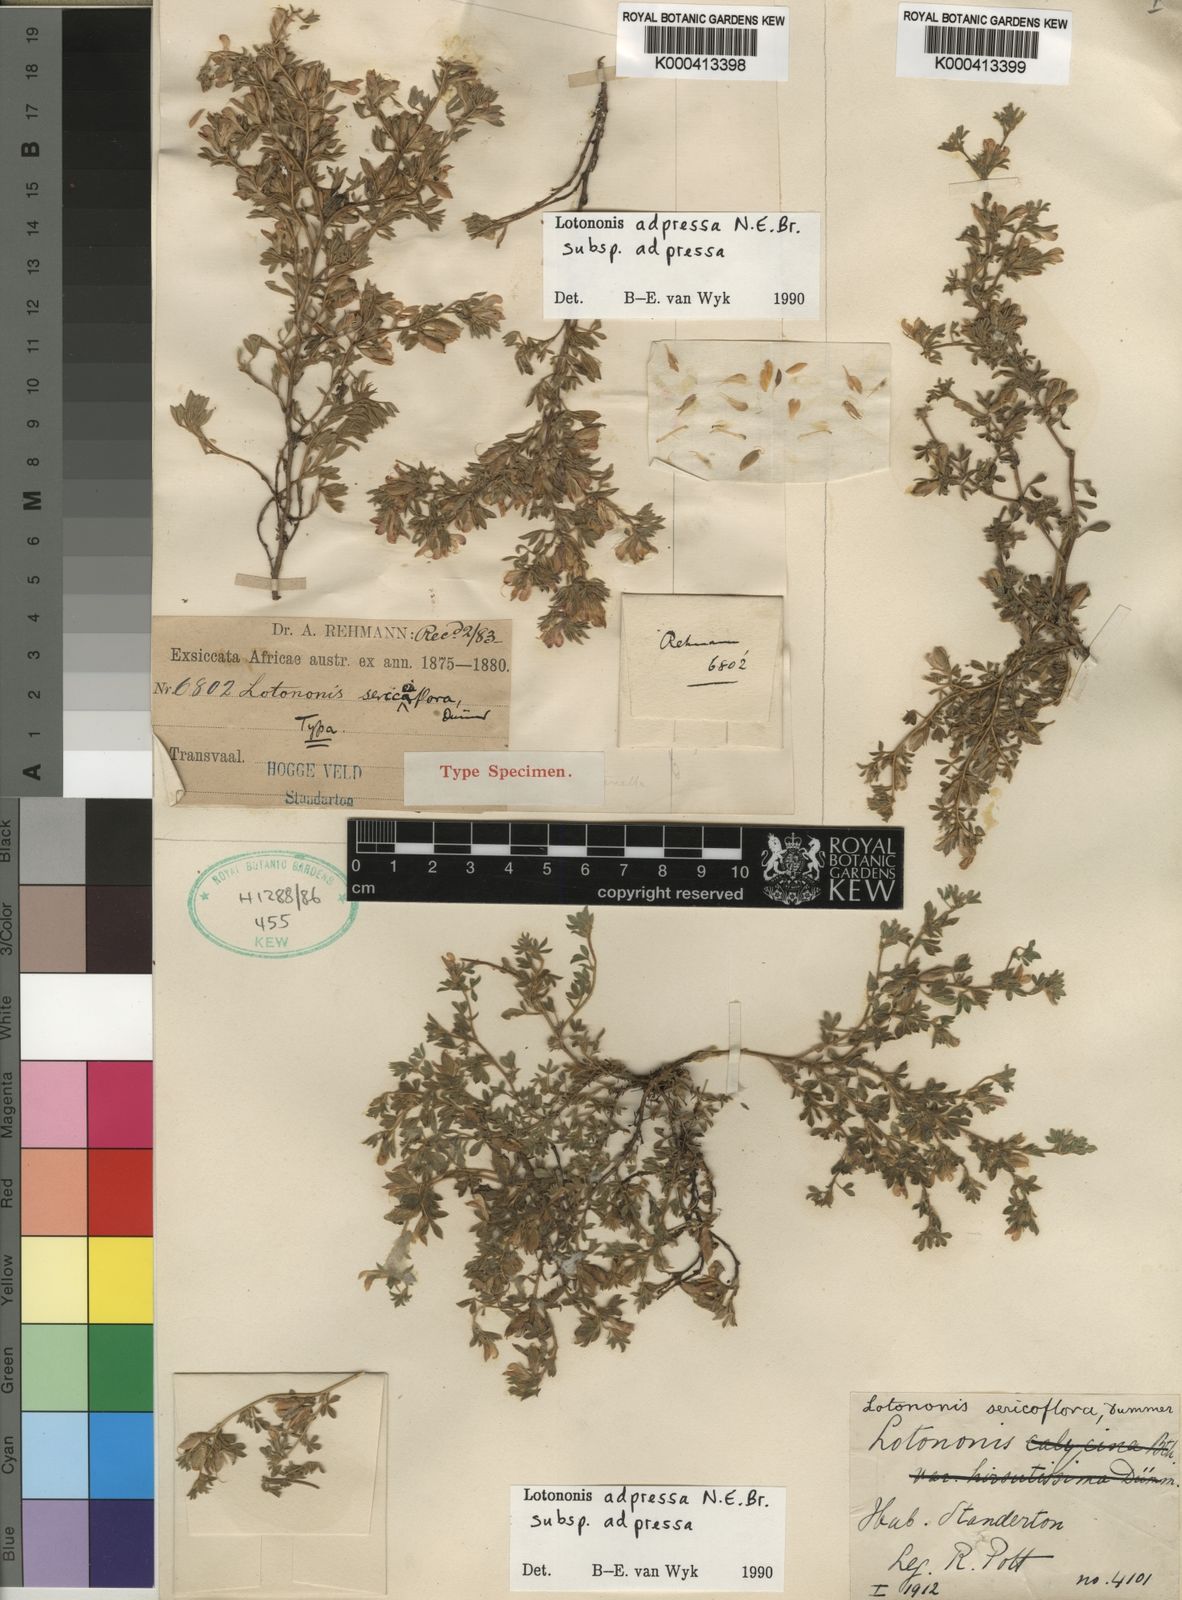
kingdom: Plantae
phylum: Tracheophyta
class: Magnoliopsida
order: Fabales
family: Fabaceae
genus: Leobordea
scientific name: Leobordea adpressa
